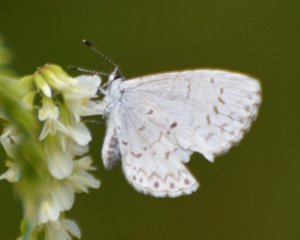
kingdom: Animalia
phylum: Arthropoda
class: Insecta
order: Lepidoptera
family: Lycaenidae
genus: Celastrina
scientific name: Celastrina
